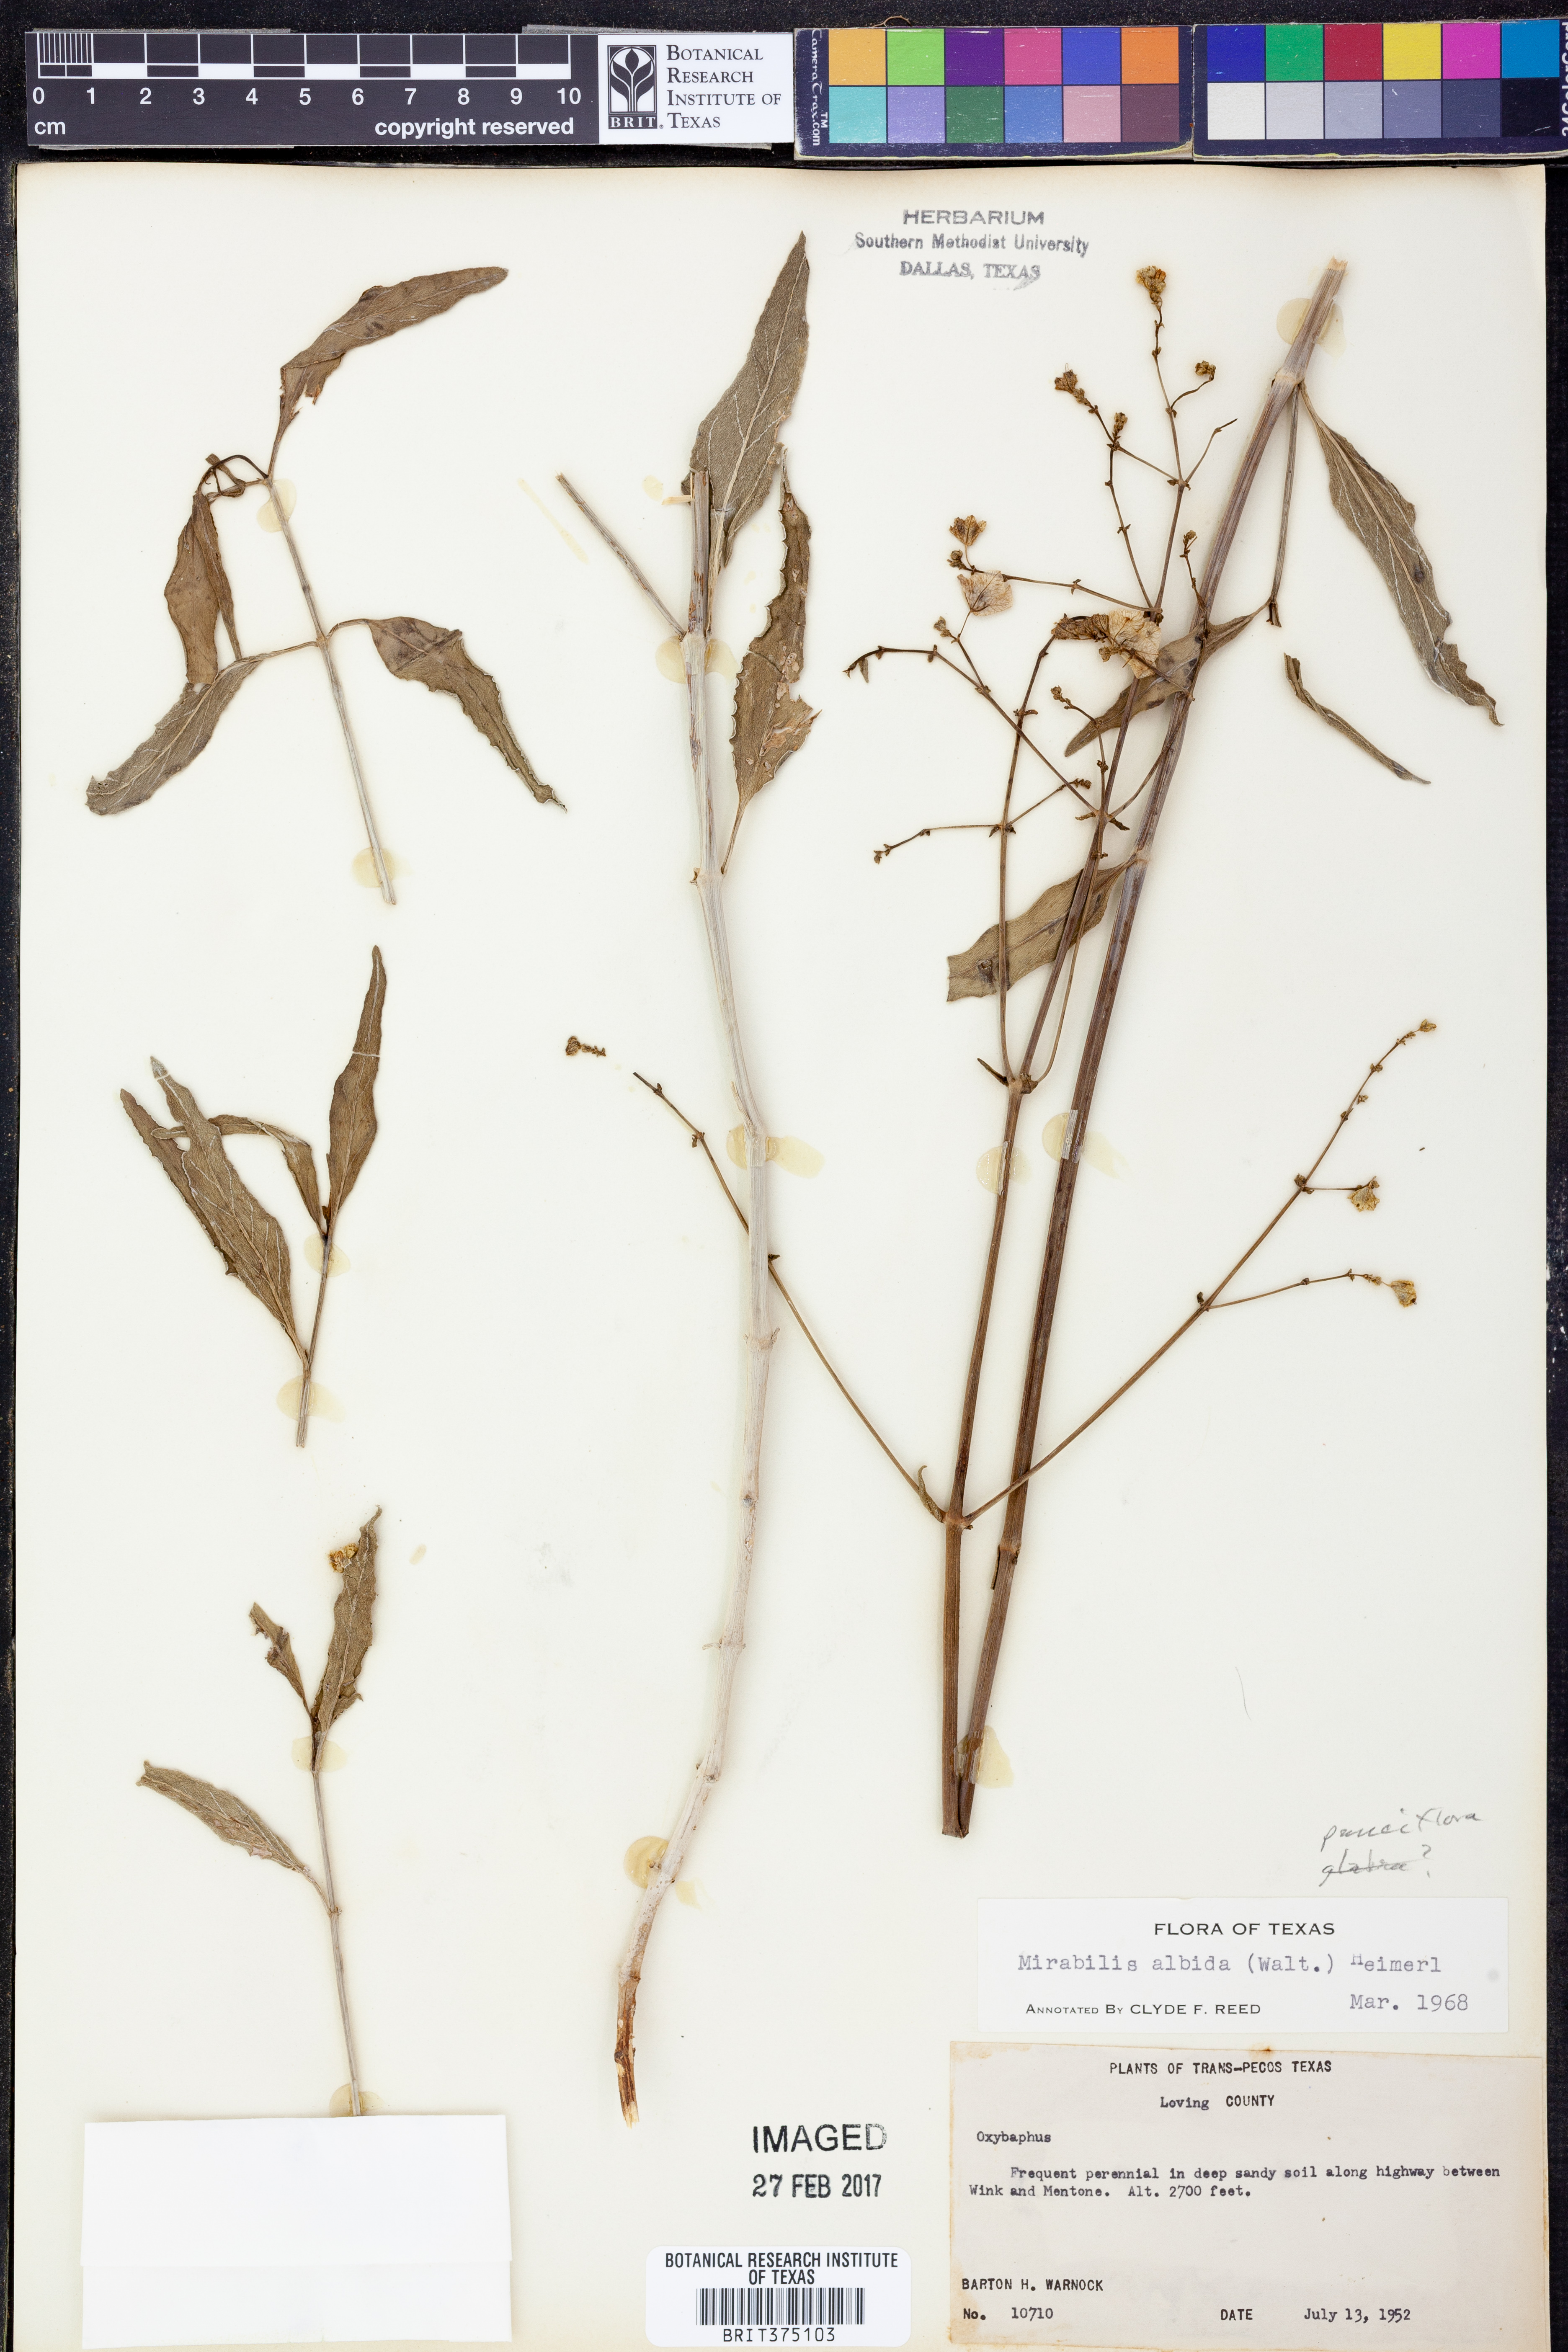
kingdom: Plantae
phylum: Tracheophyta
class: Magnoliopsida
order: Caryophyllales
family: Nyctaginaceae
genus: Mirabilis
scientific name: Mirabilis albida
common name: Hairy four-o'clock
